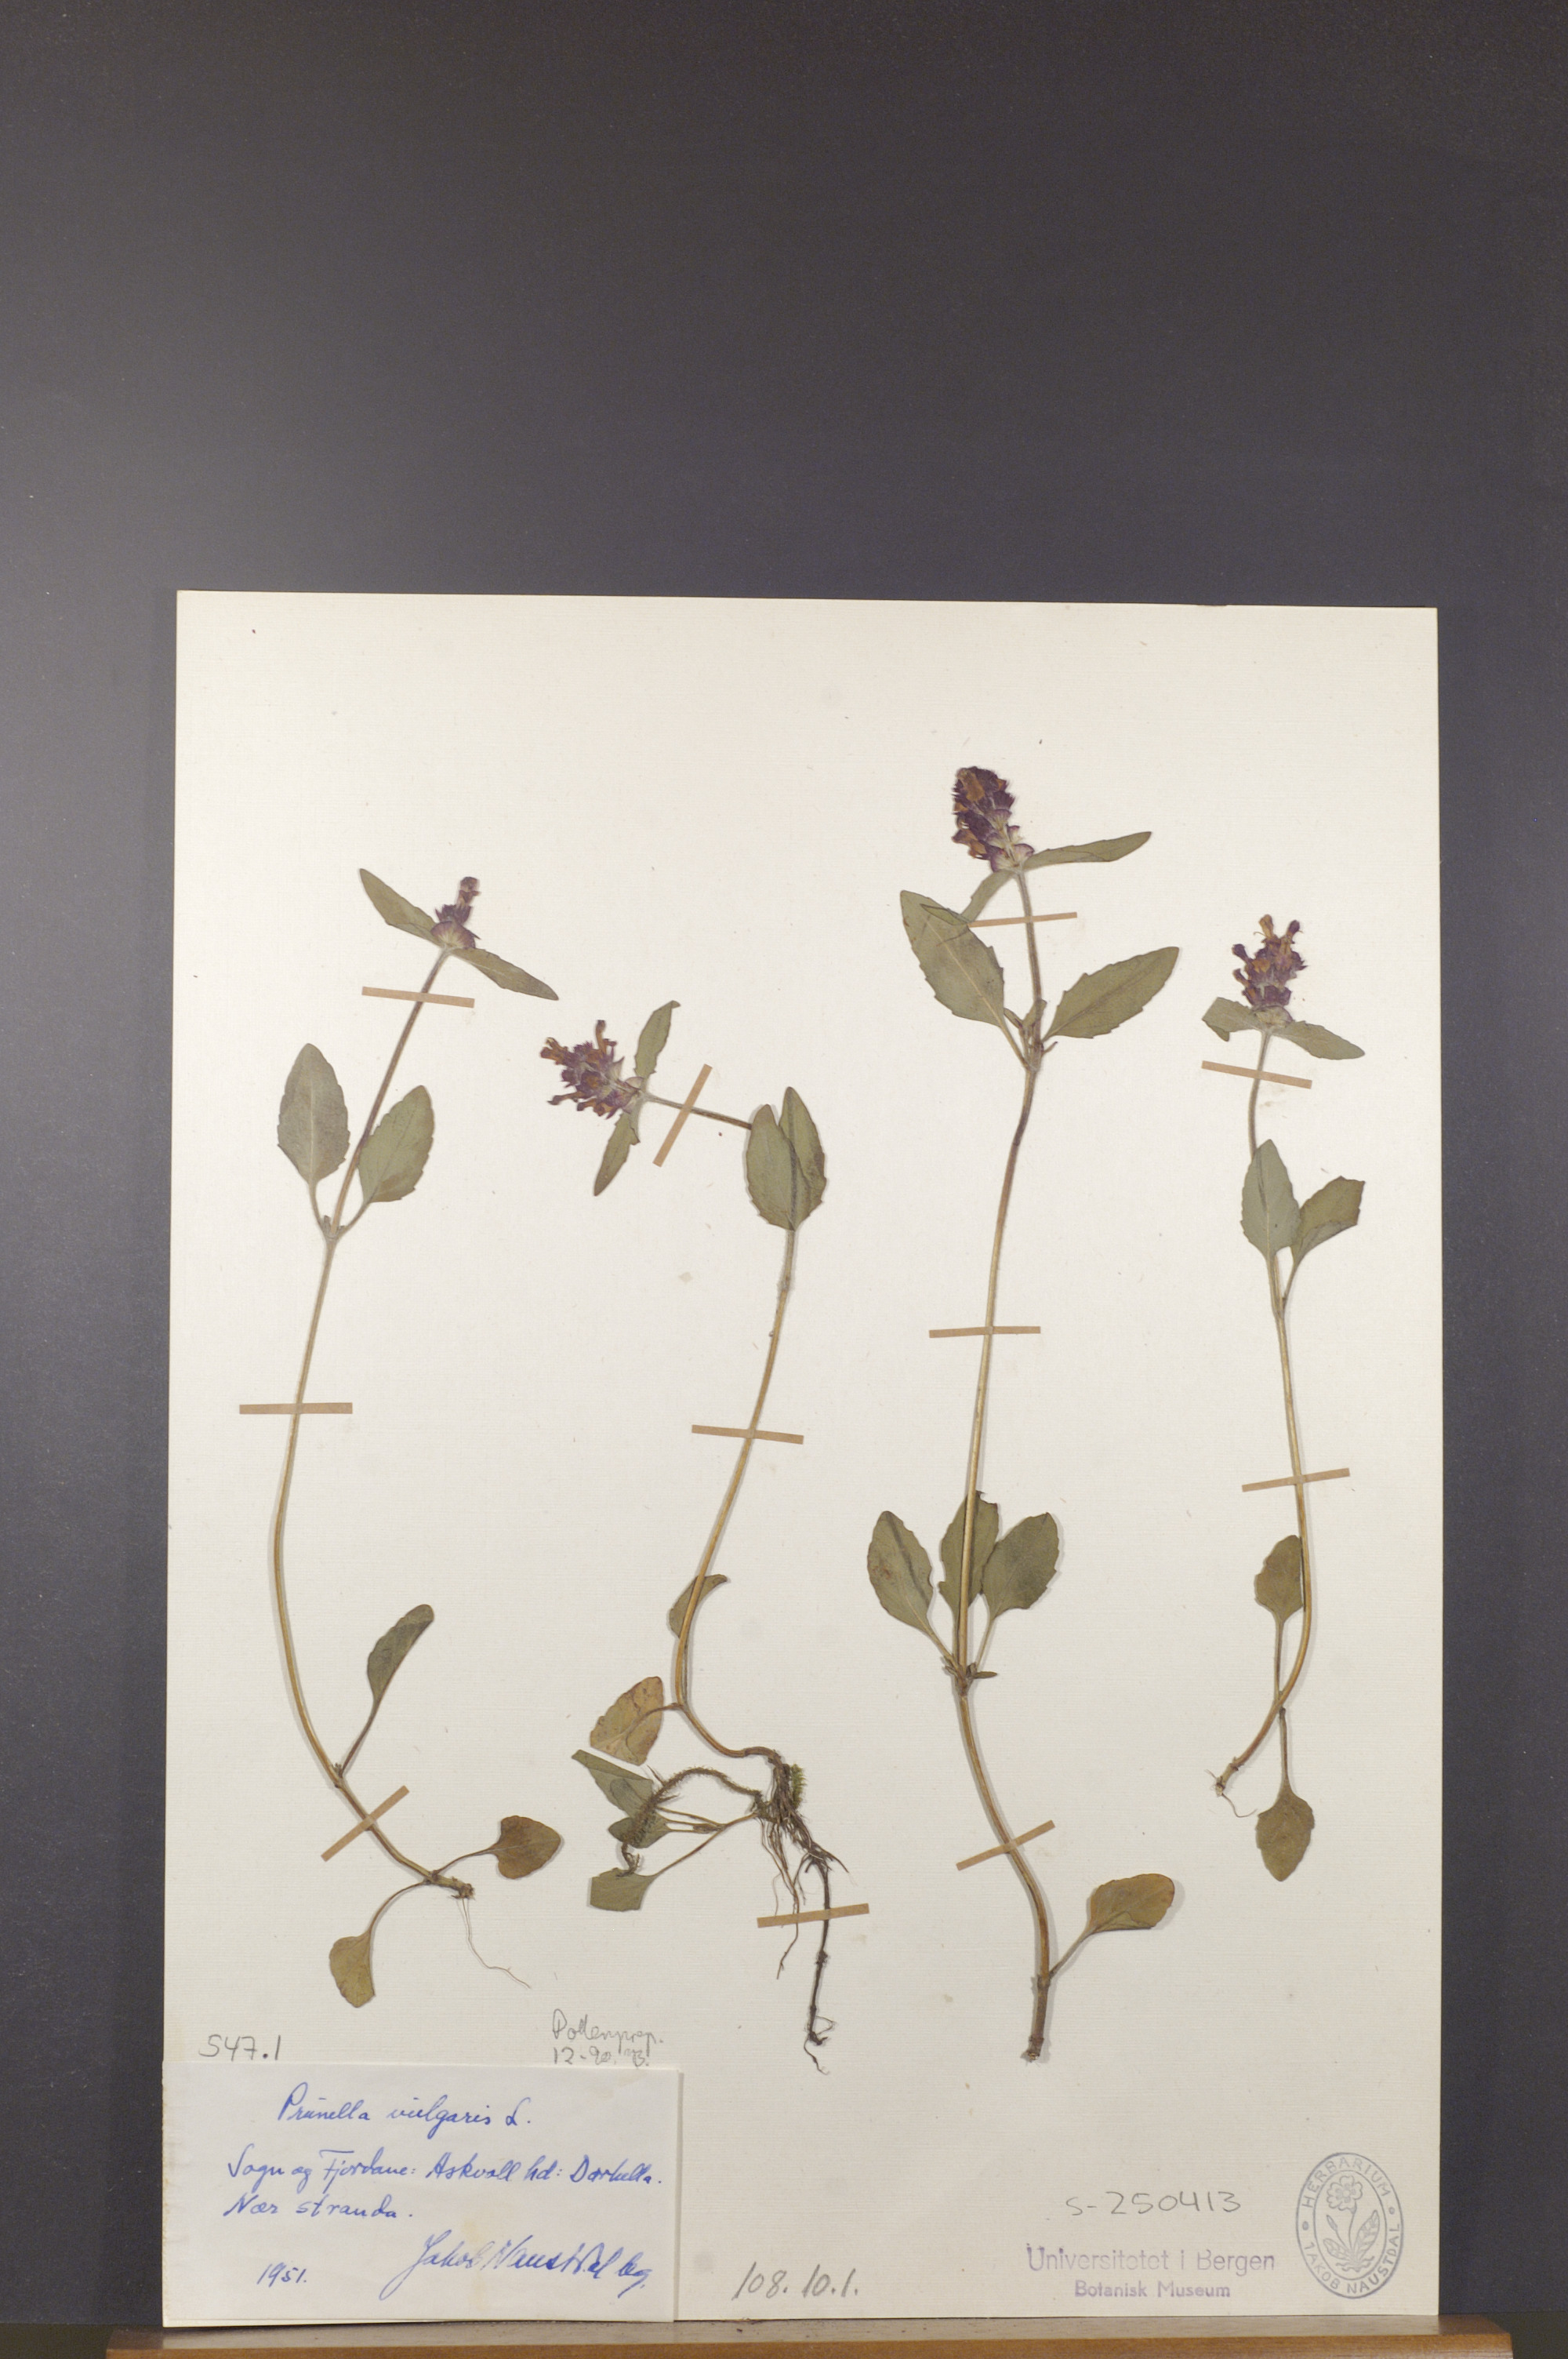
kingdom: Plantae
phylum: Tracheophyta
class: Magnoliopsida
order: Lamiales
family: Lamiaceae
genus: Prunella
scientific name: Prunella vulgaris
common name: Heal-all
